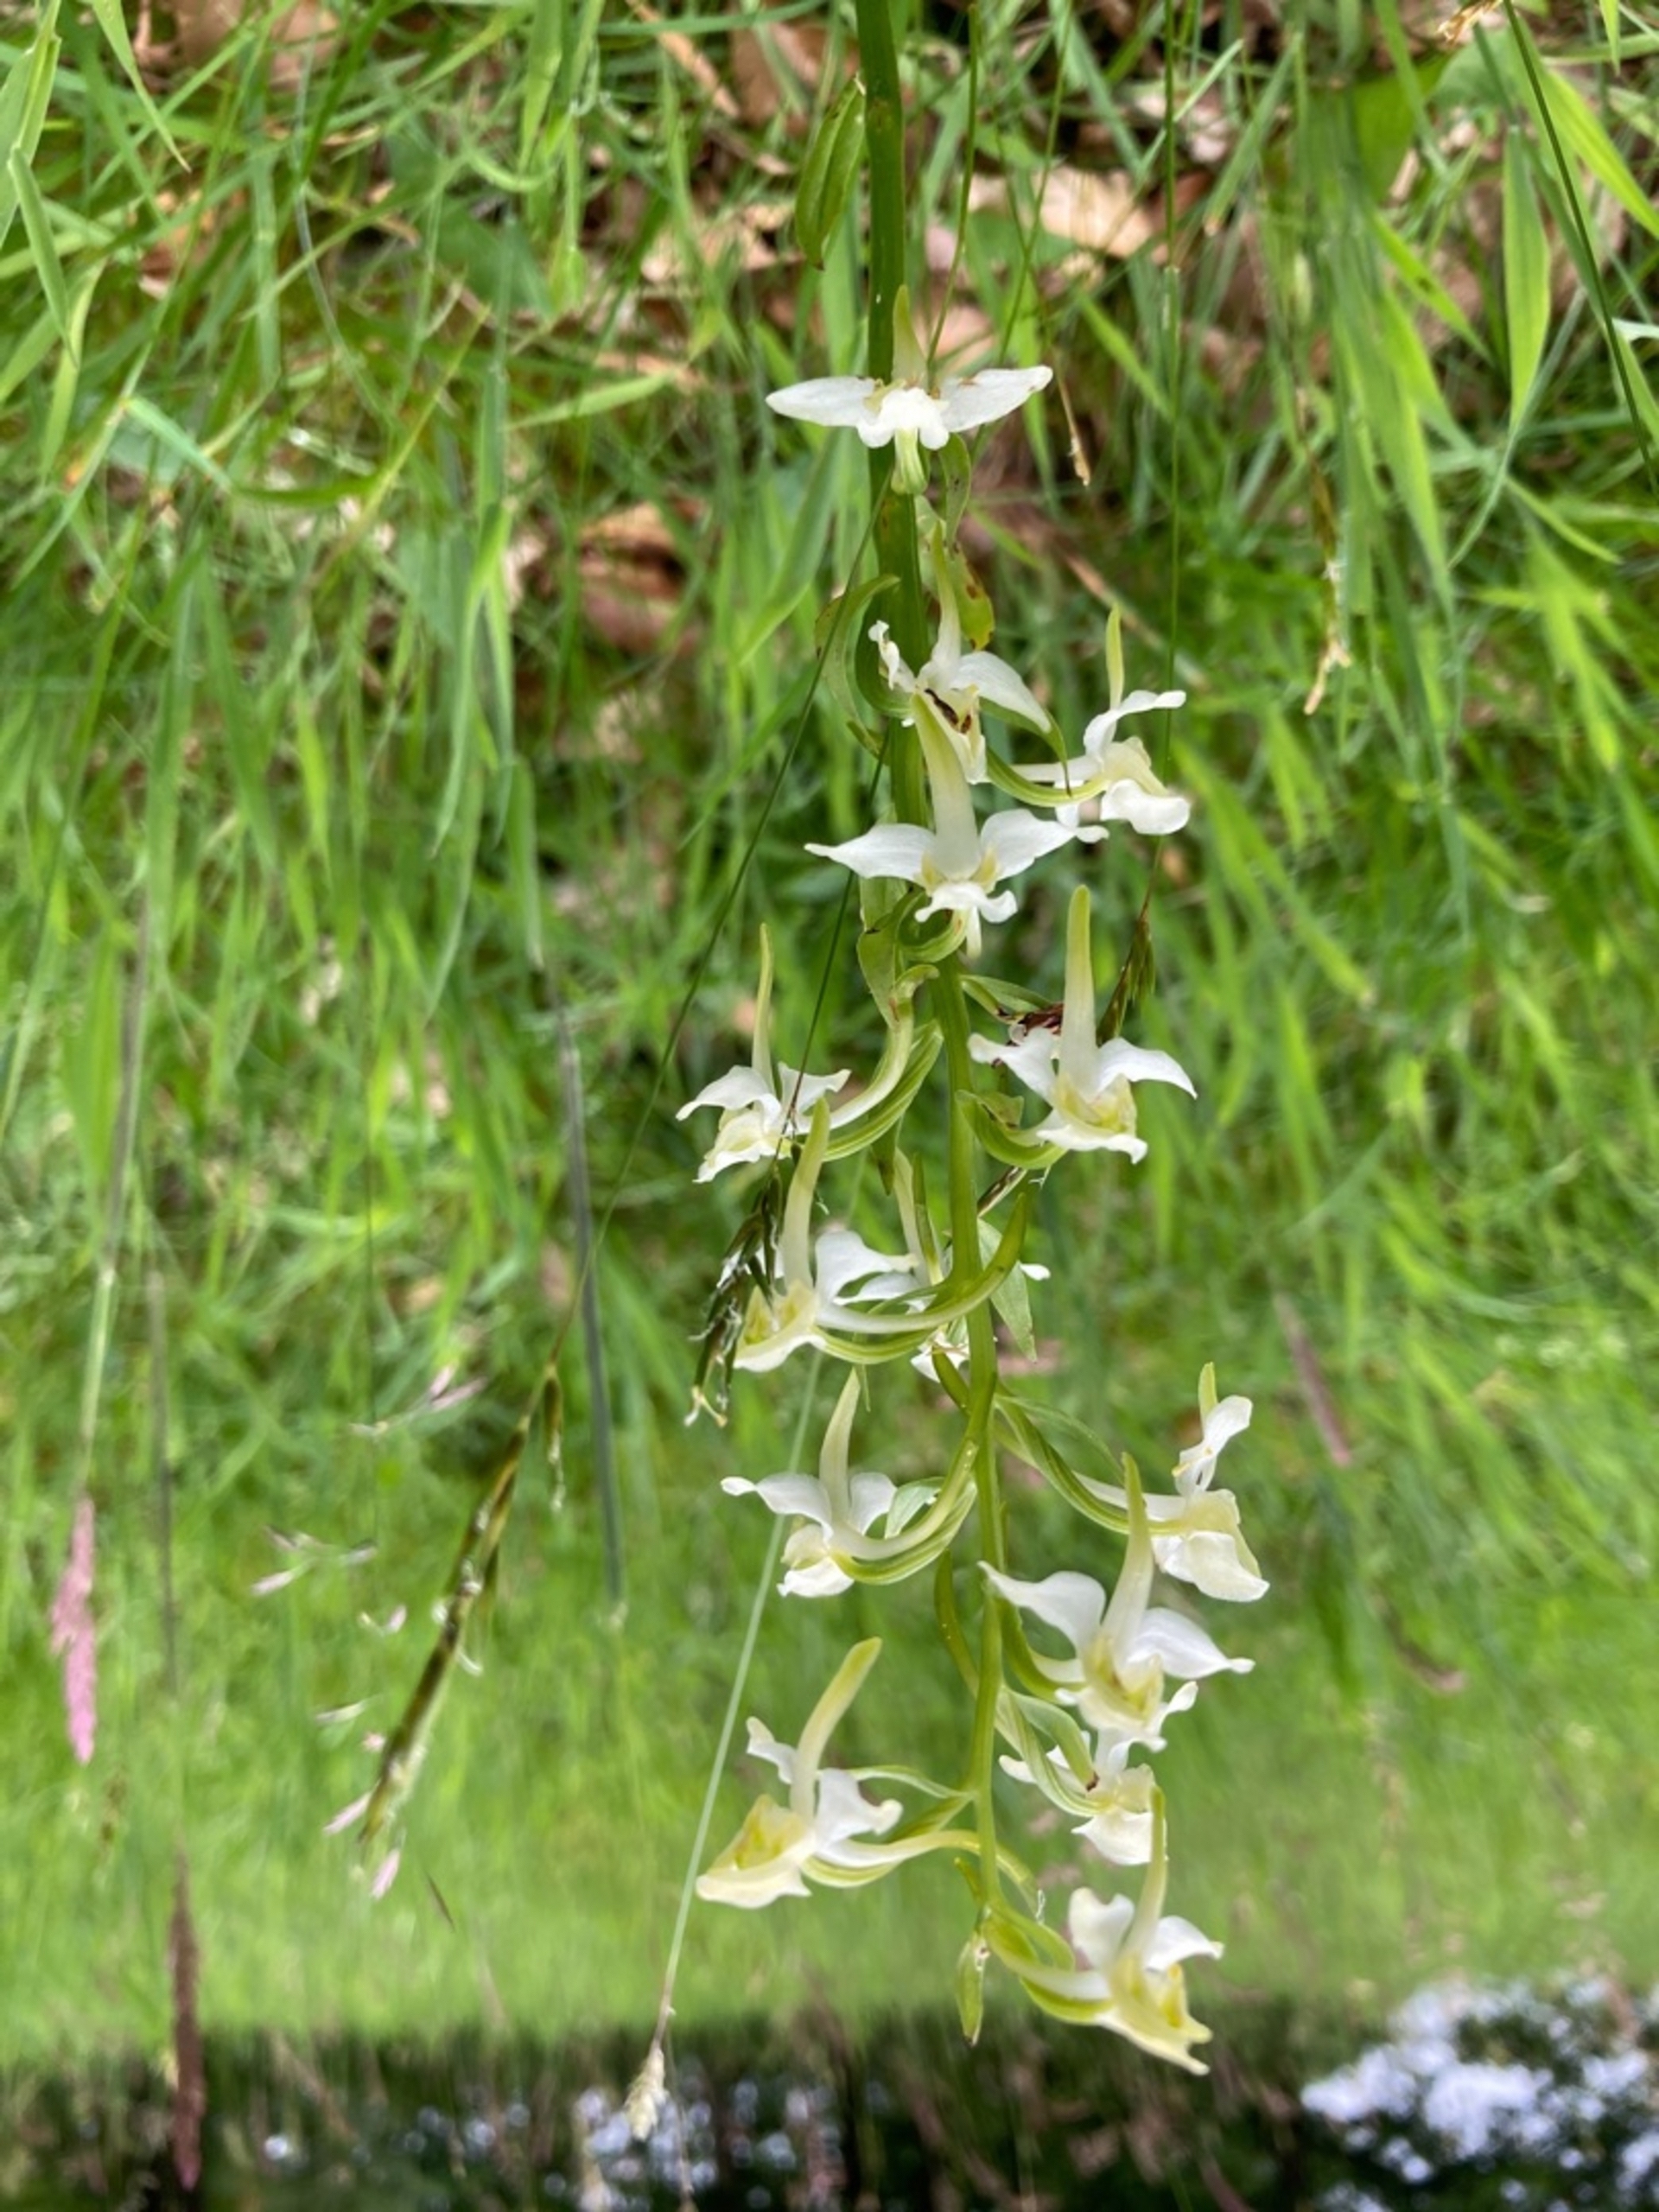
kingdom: Plantae
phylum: Tracheophyta
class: Liliopsida
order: Asparagales
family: Orchidaceae
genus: Platanthera
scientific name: Platanthera chlorantha
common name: Skov-gøgelilje
